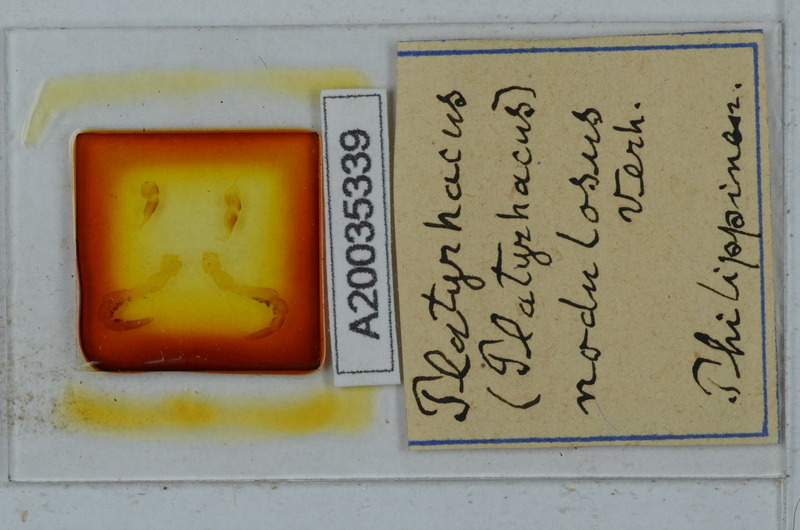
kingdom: Animalia
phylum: Arthropoda
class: Diplopoda
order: Polydesmida
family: Platyrhacidae
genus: Platyrhacus
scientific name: Platyrhacus
